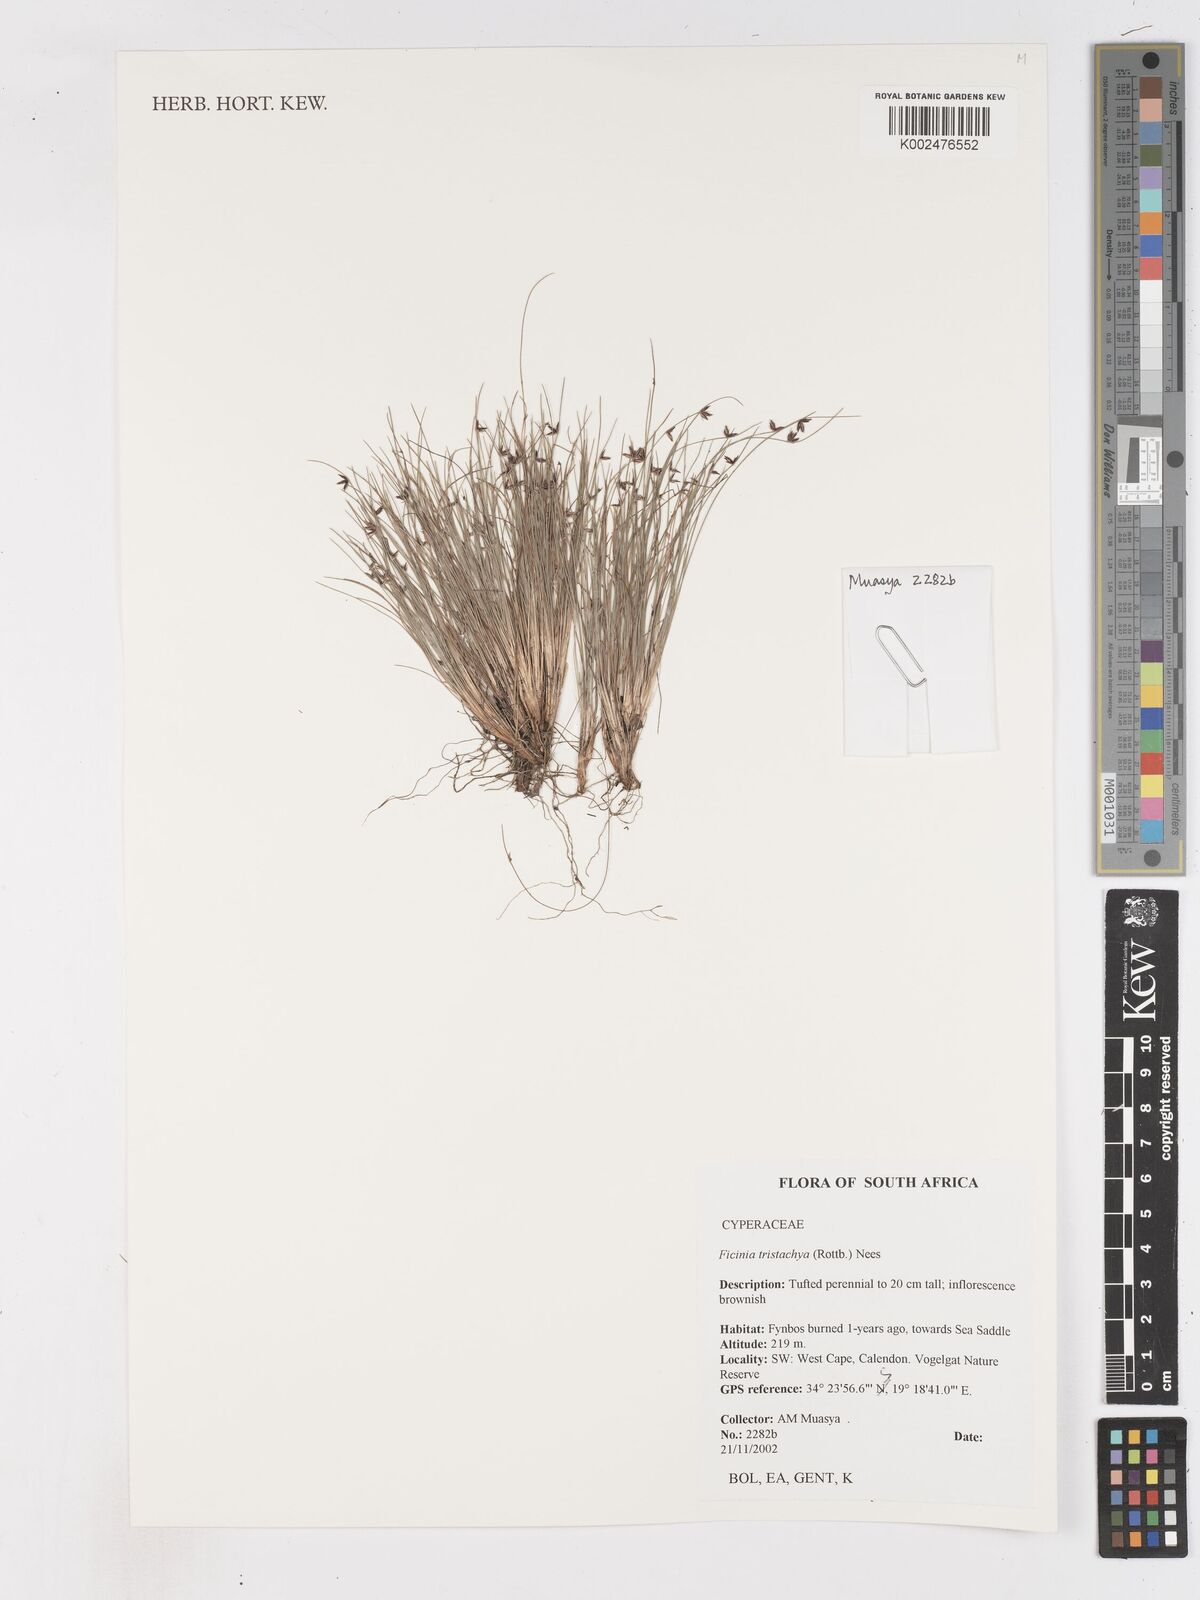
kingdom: Plantae
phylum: Tracheophyta
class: Liliopsida
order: Poales
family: Cyperaceae
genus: Ficinia
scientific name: Ficinia
